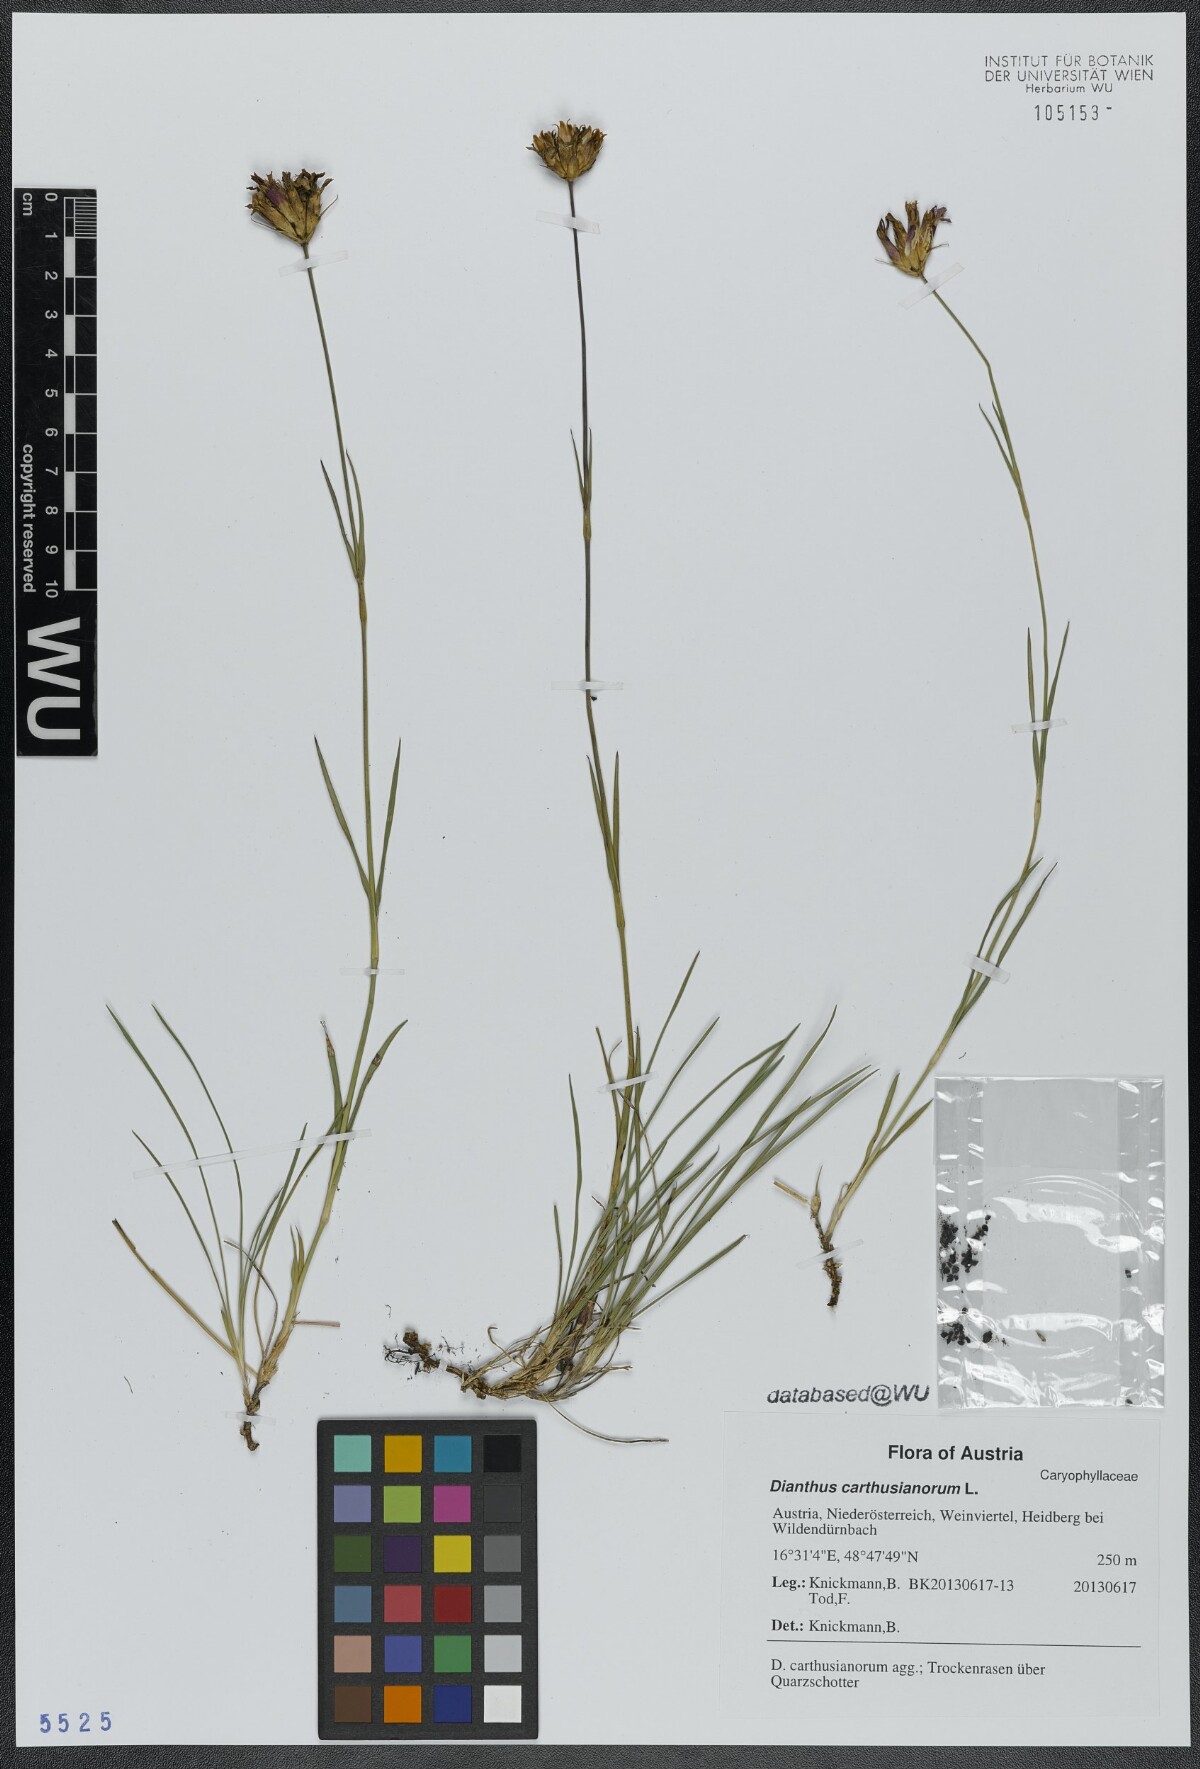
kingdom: Plantae
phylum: Tracheophyta
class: Magnoliopsida
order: Caryophyllales
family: Caryophyllaceae
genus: Dianthus
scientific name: Dianthus carthusianorum
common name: Carthusian pink
